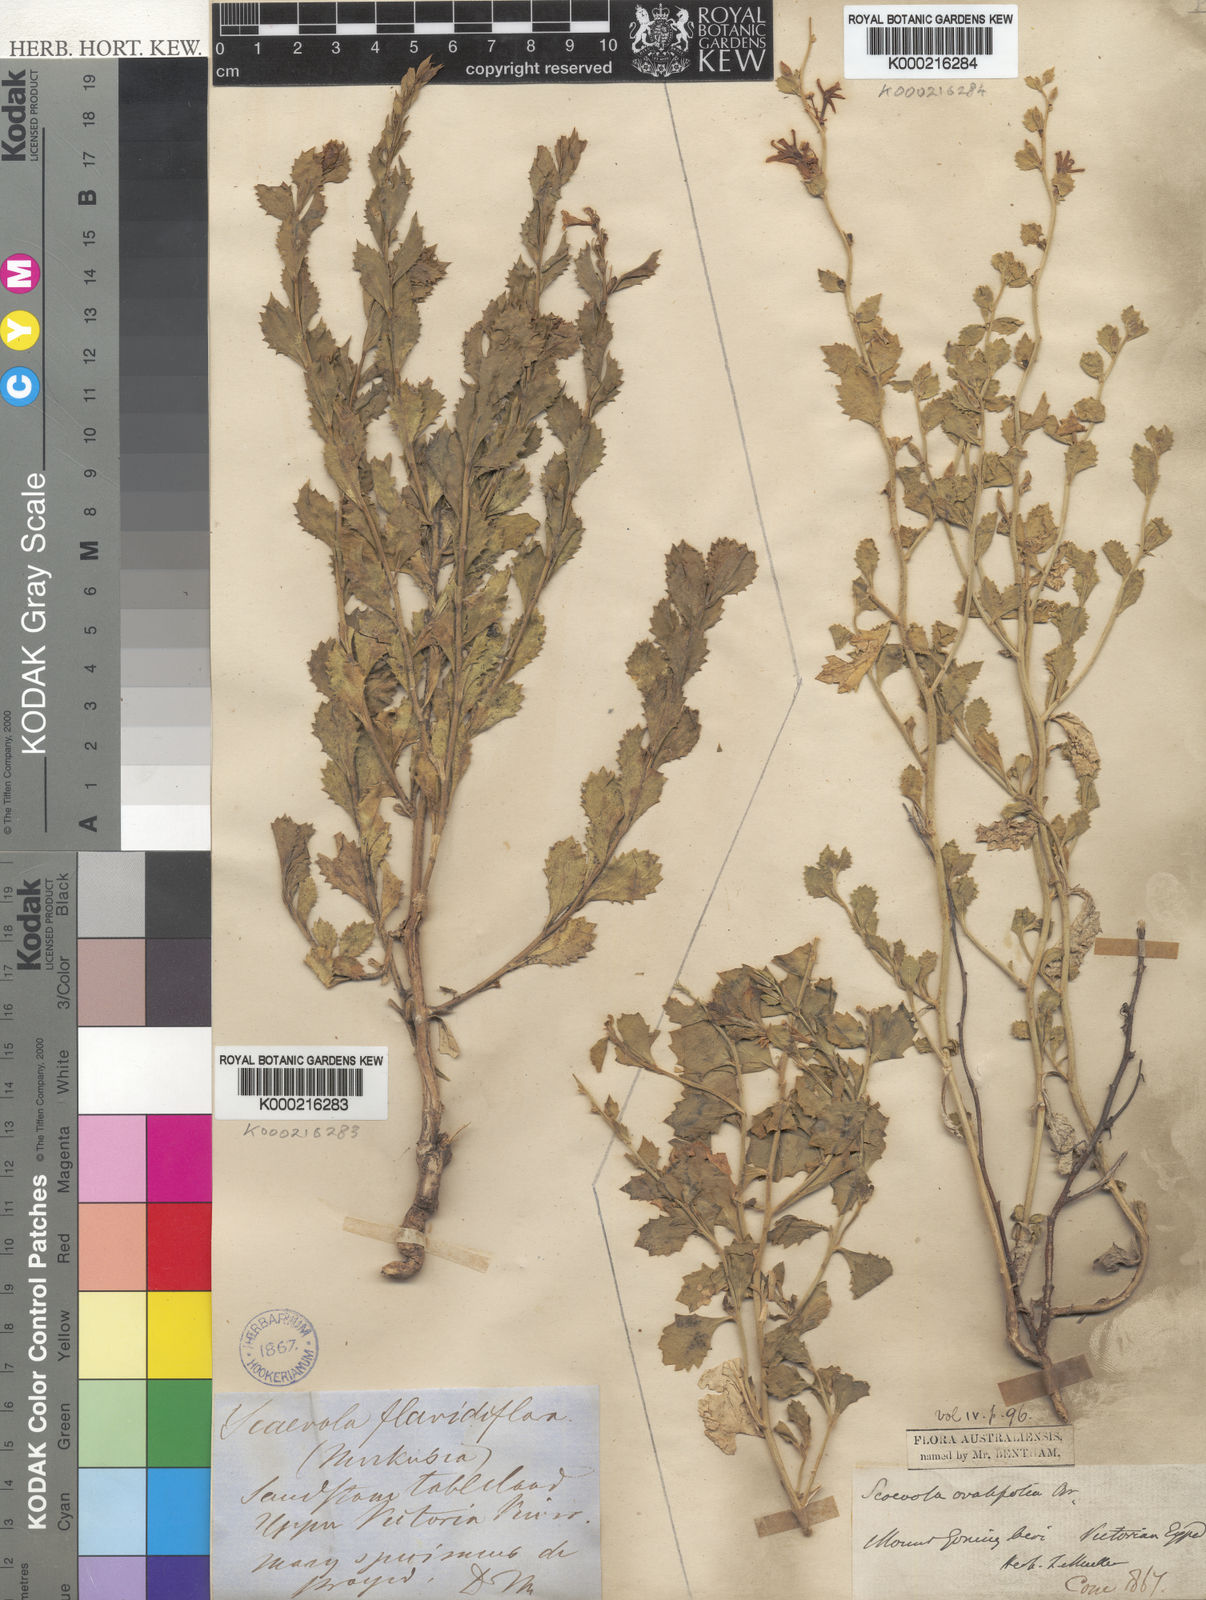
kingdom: Plantae
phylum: Tracheophyta
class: Magnoliopsida
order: Asterales
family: Goodeniaceae
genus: Scaevola
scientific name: Scaevola ovalifolia
